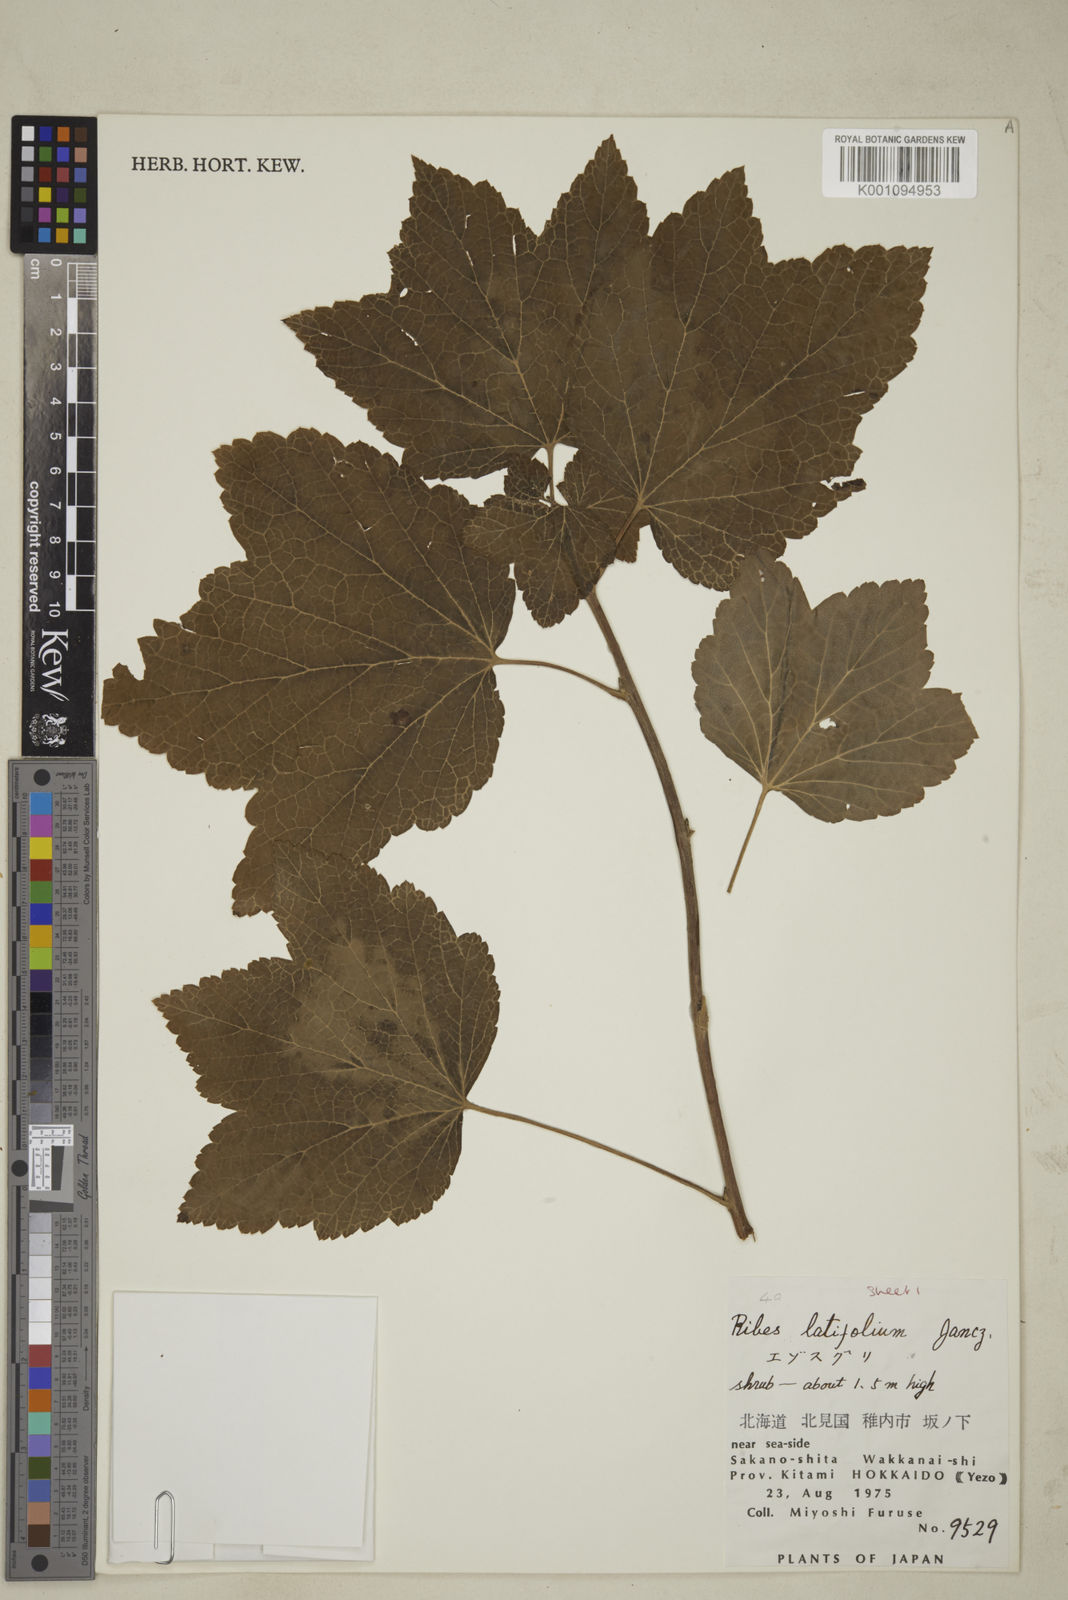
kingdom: Plantae
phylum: Tracheophyta
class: Magnoliopsida
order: Saxifragales
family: Grossulariaceae
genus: Ribes
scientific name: Ribes latifolium
